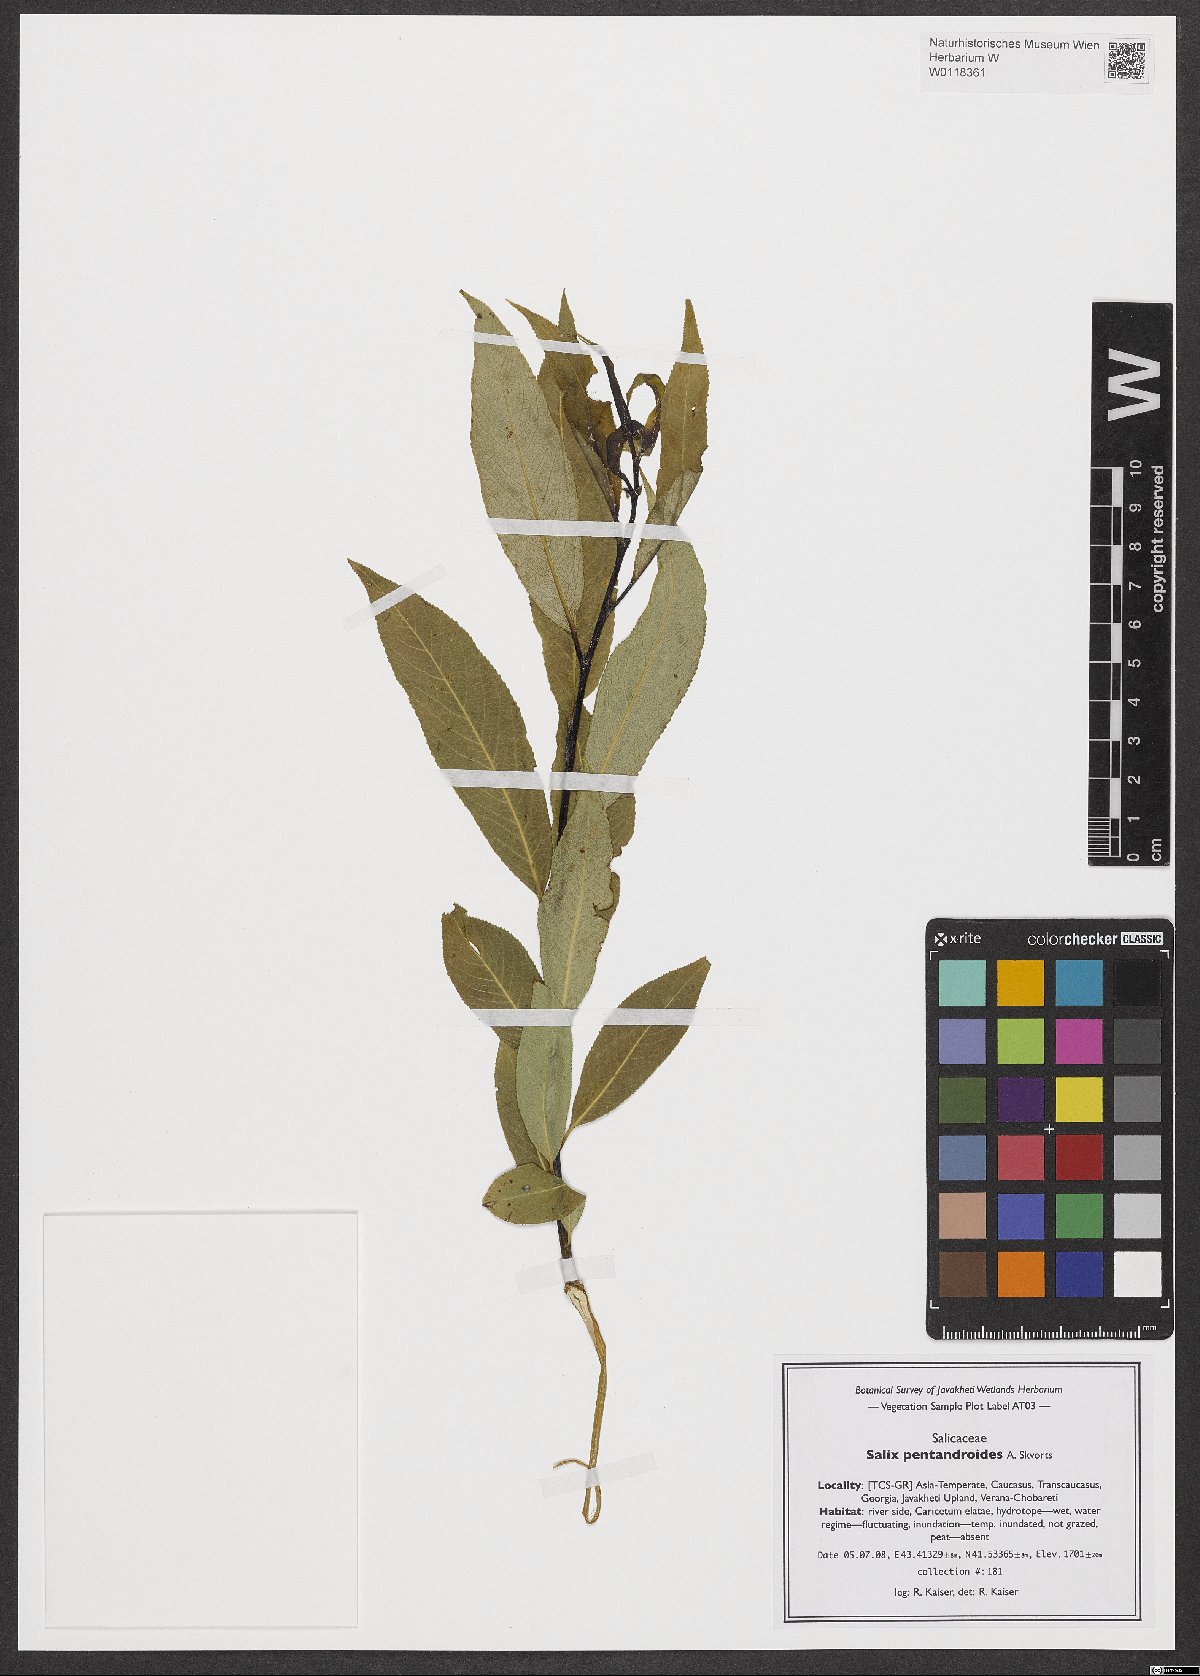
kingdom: Plantae
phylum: Tracheophyta
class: Magnoliopsida
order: Malpighiales
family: Salicaceae
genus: Salix
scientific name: Salix pentandrifolia
